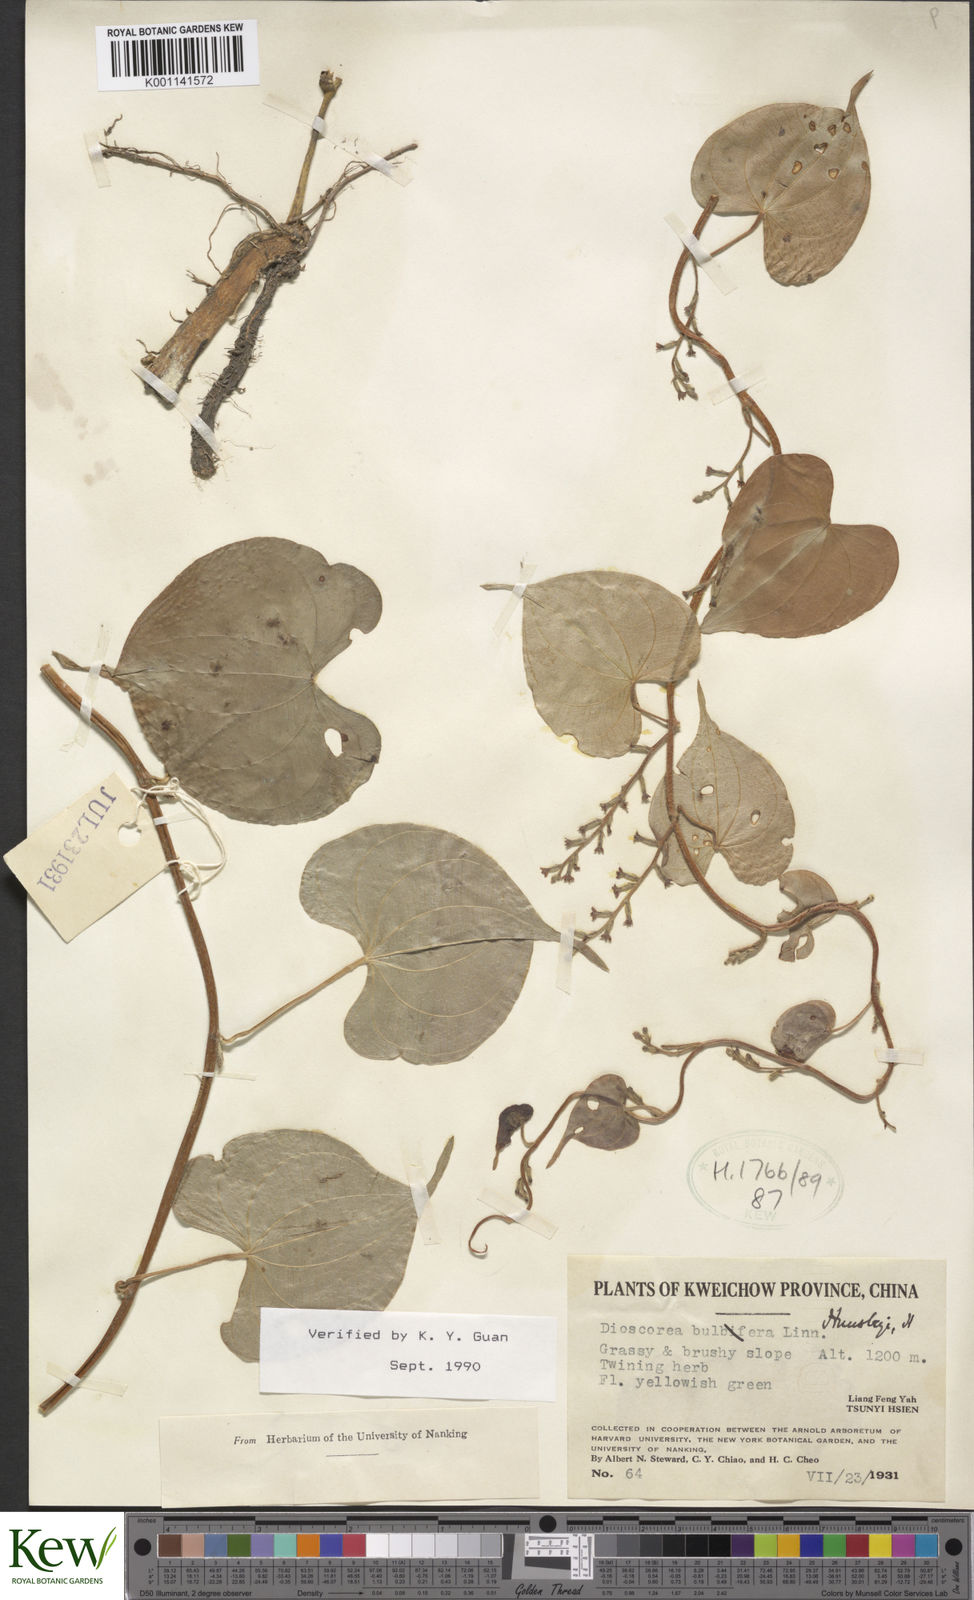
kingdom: Plantae
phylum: Tracheophyta
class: Liliopsida
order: Dioscoreales
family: Dioscoreaceae
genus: Dioscorea
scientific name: Dioscorea hemsleyi
